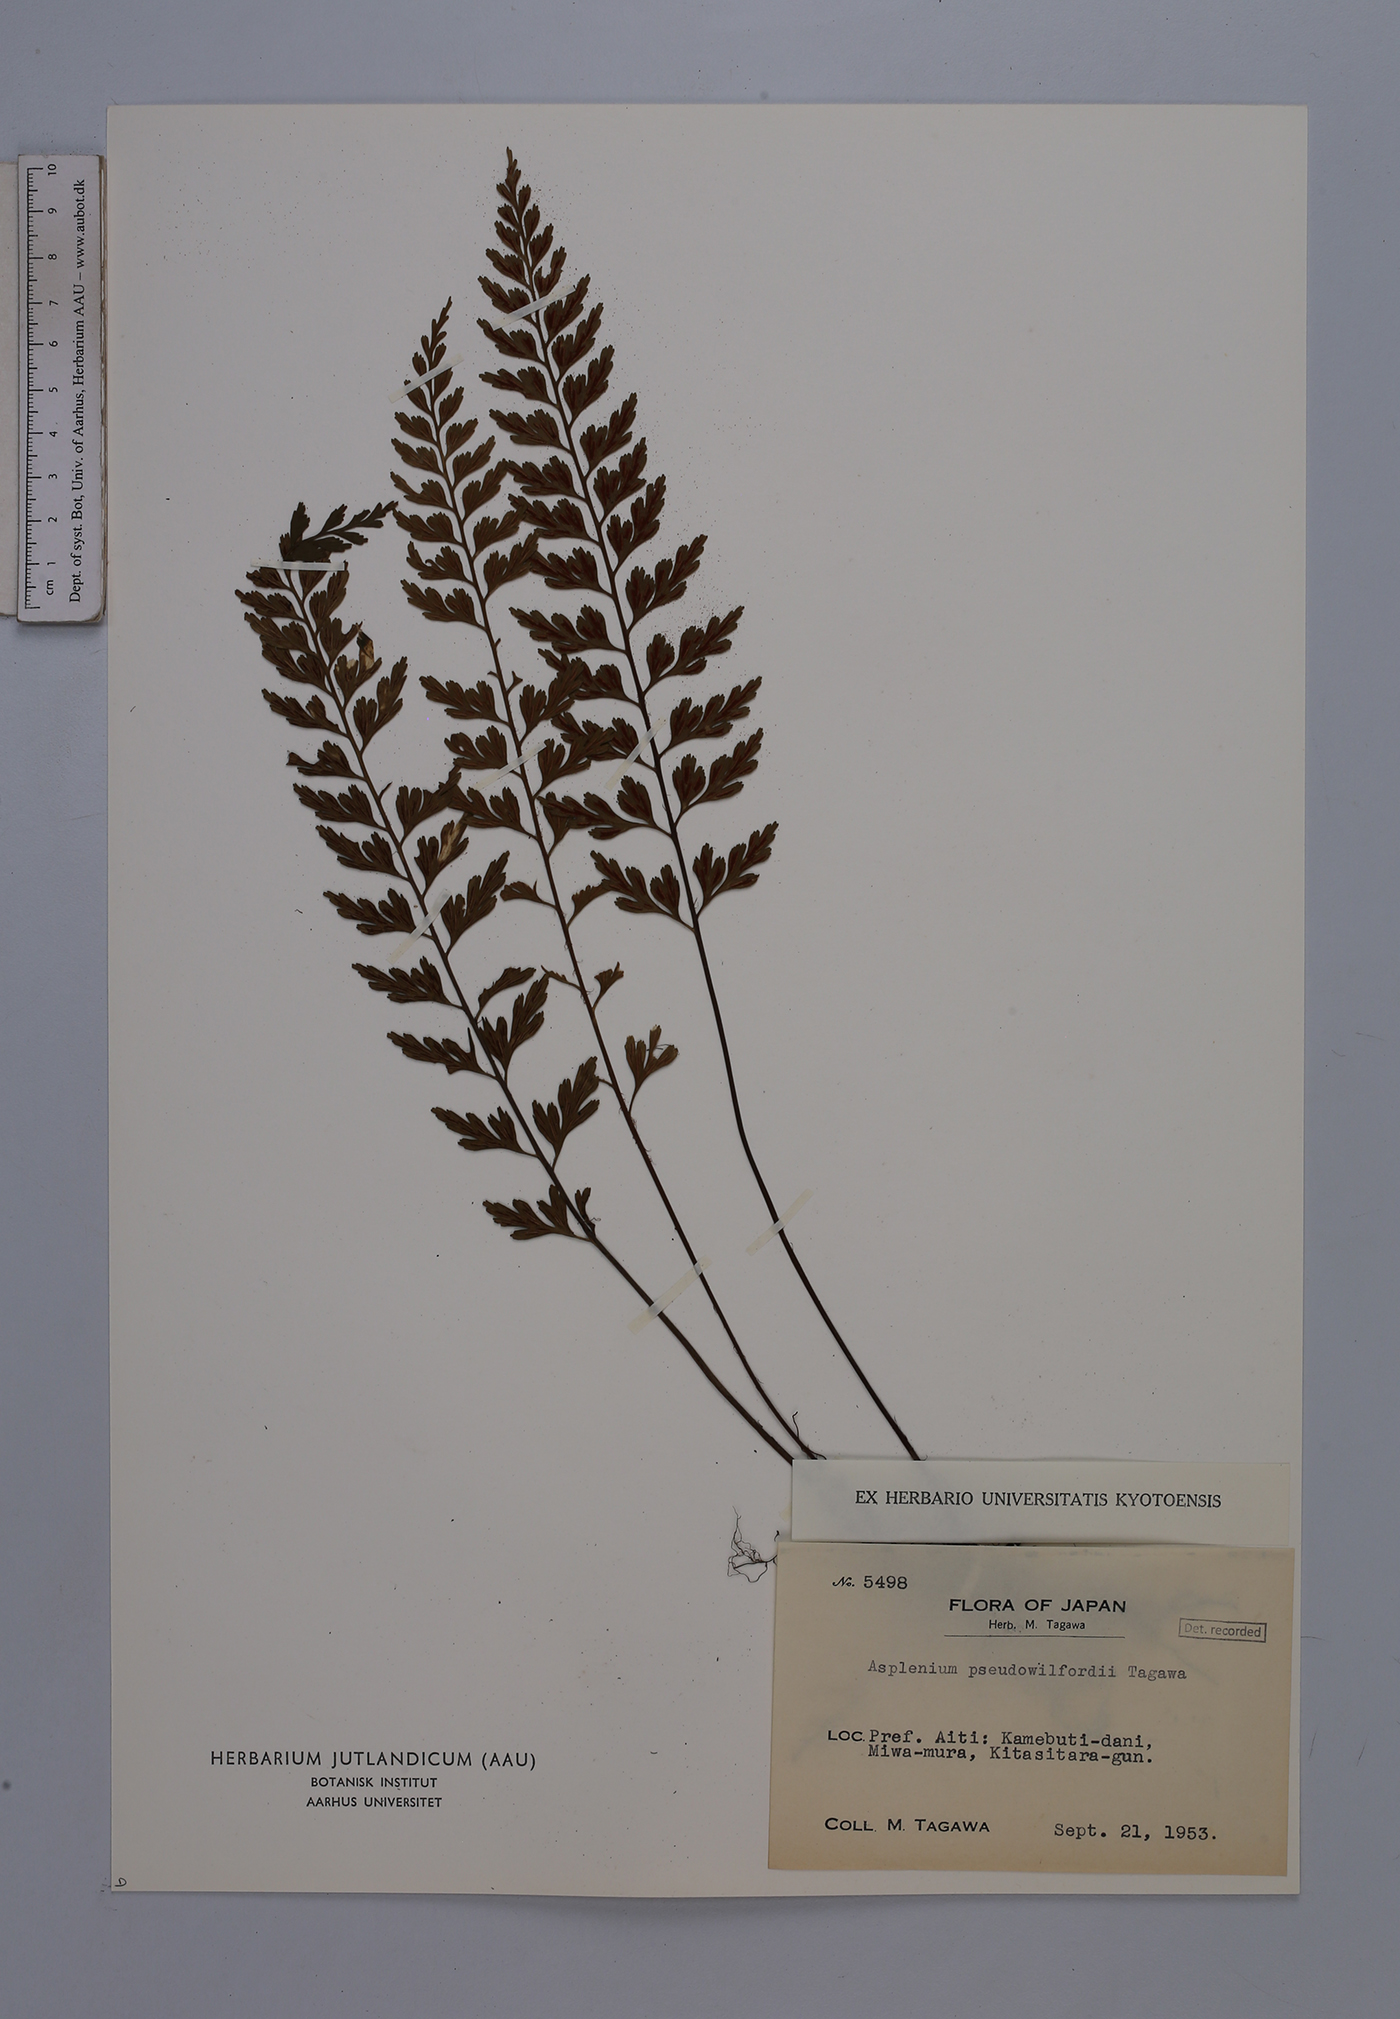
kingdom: Plantae
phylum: Tracheophyta
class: Polypodiopsida
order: Polypodiales
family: Aspleniaceae
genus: Asplenium
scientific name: Asplenium austrochinense
